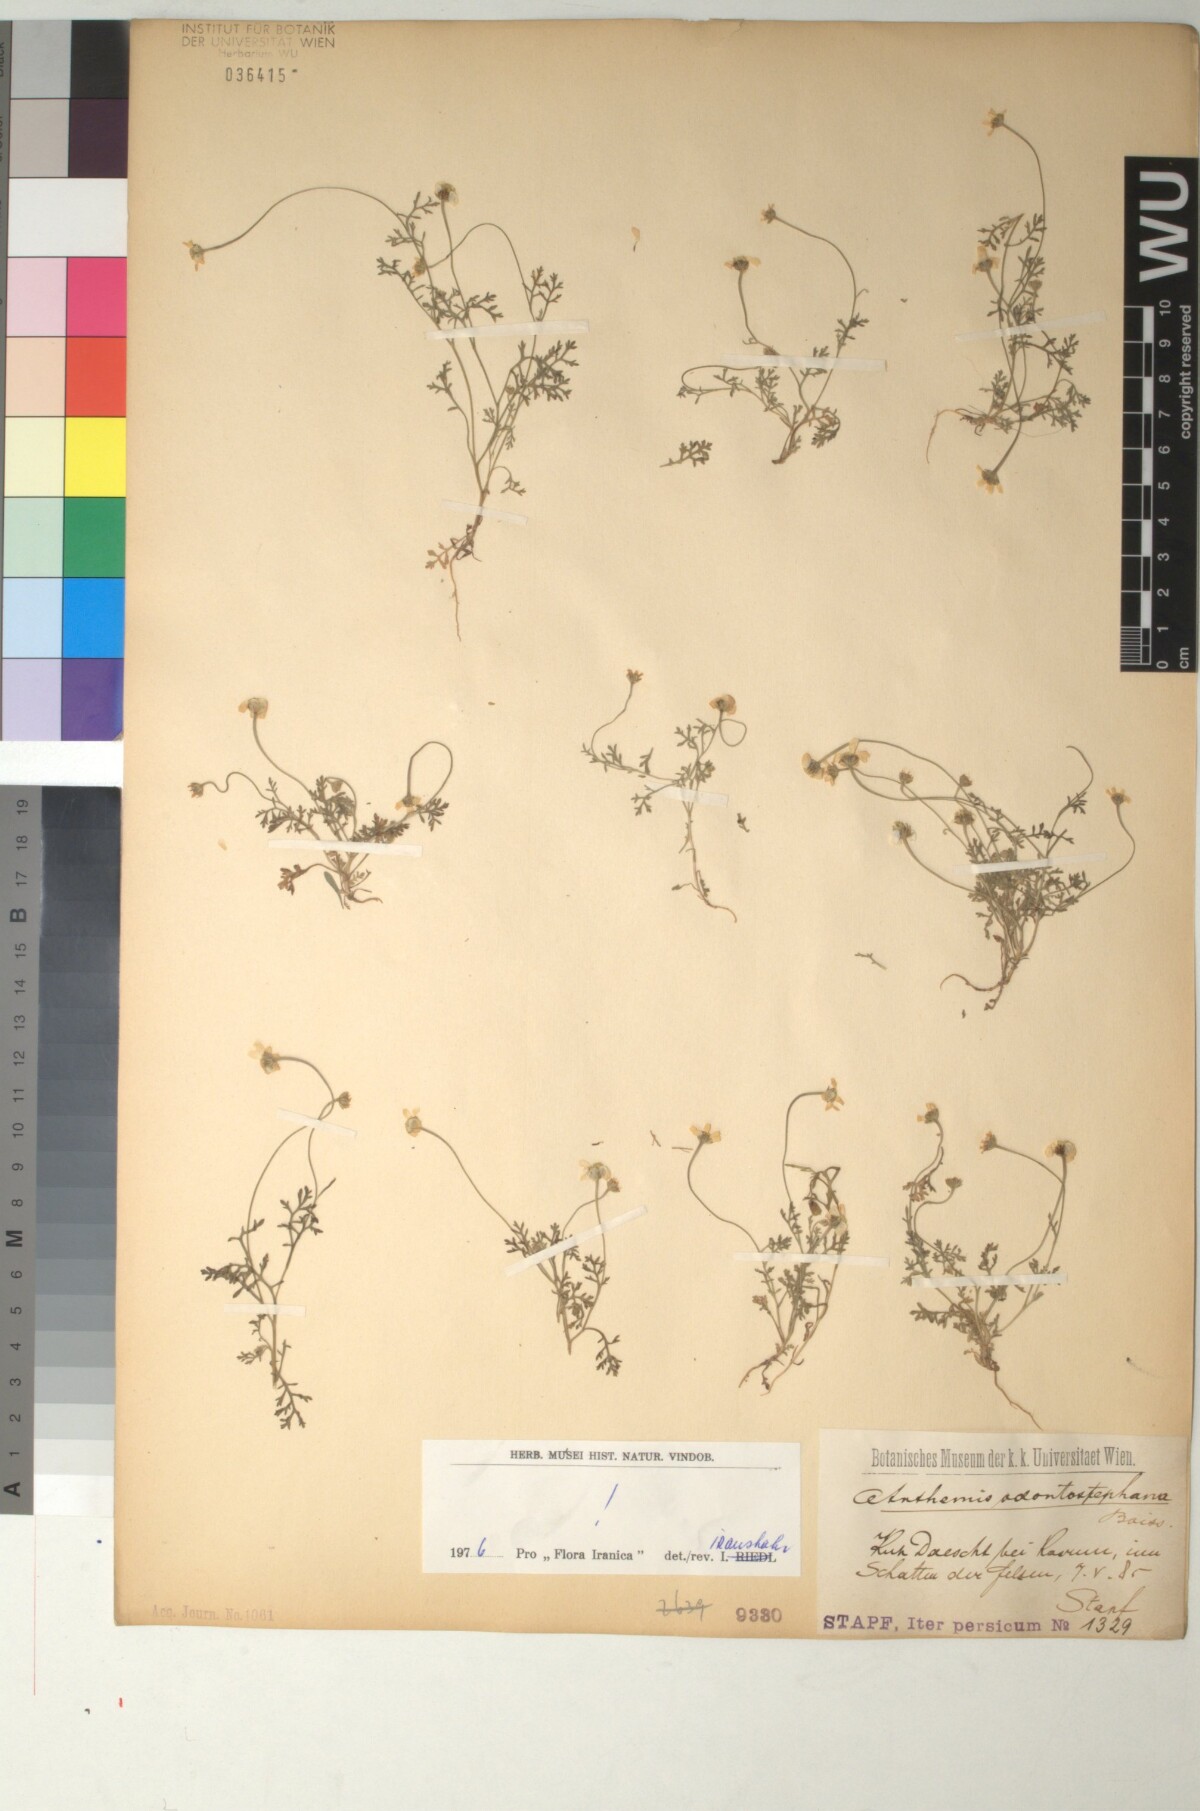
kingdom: Plantae
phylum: Tracheophyta
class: Magnoliopsida
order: Asterales
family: Asteraceae
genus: Anthemis
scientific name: Anthemis odontostephana
